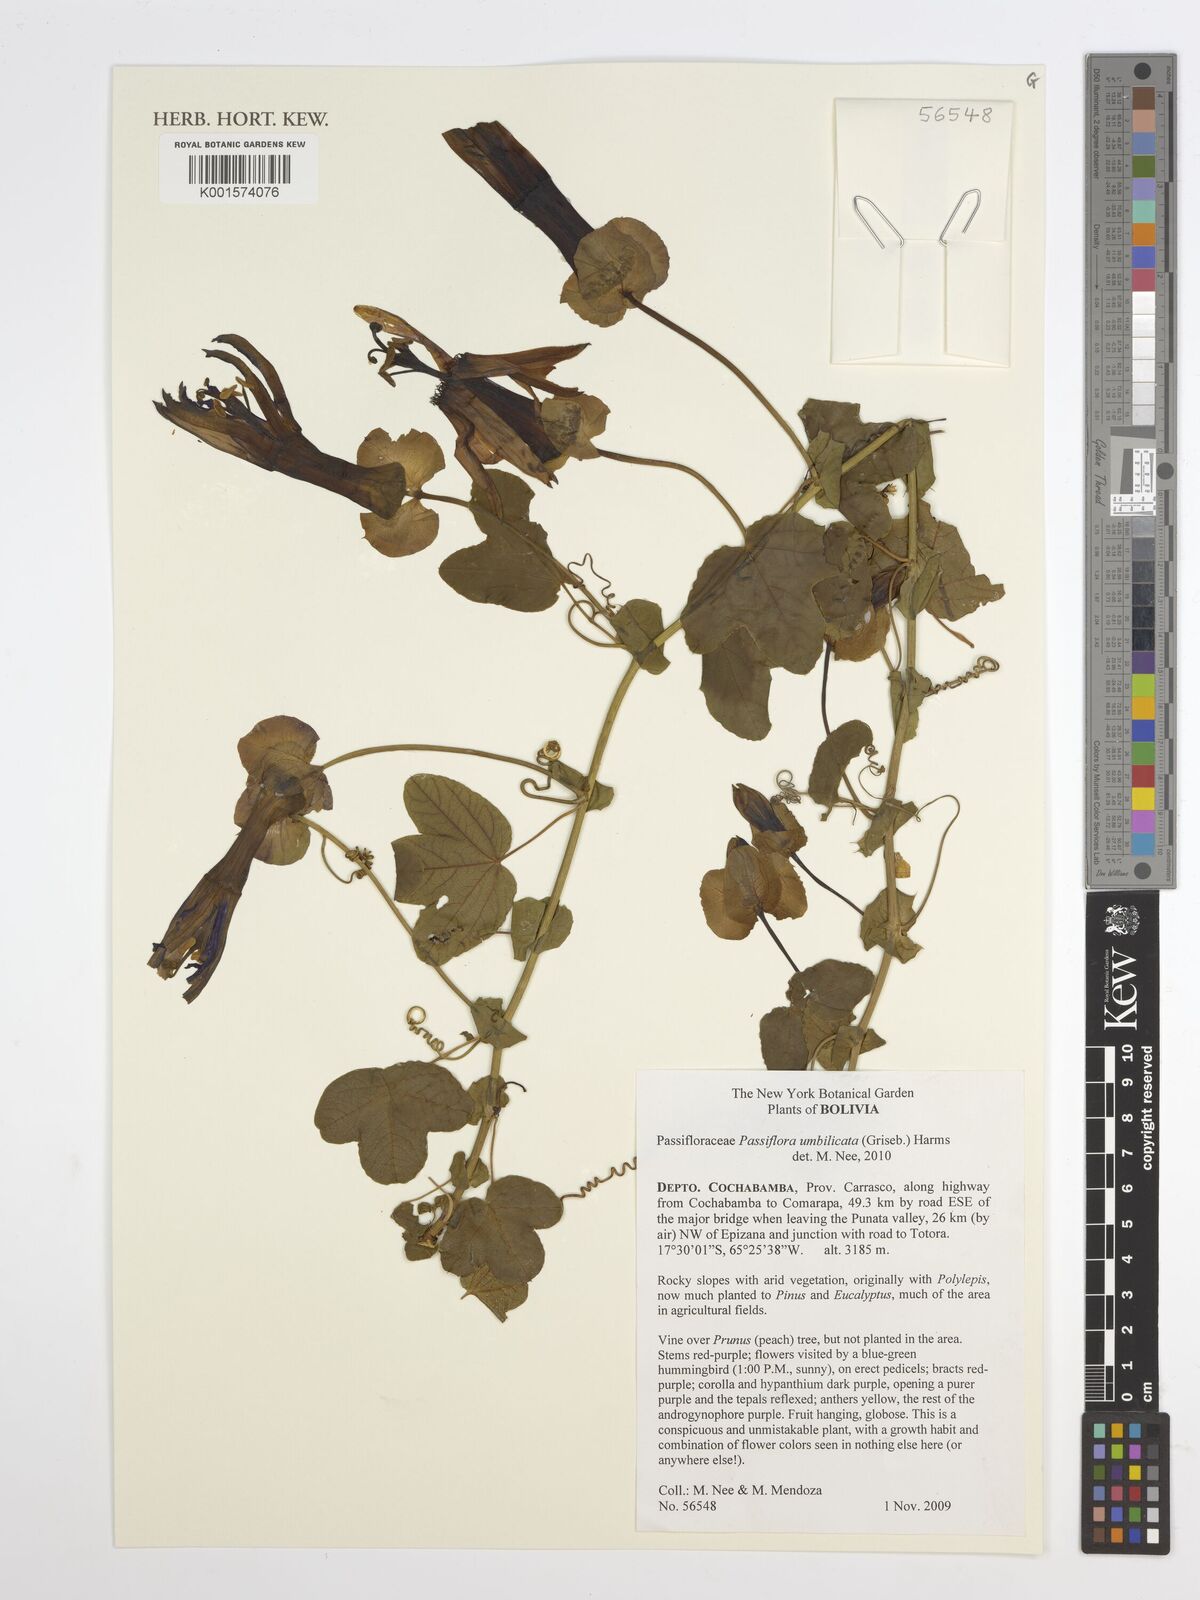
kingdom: Plantae
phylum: Tracheophyta
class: Magnoliopsida
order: Malpighiales
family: Passifloraceae
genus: Passiflora
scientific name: Passiflora umbilicata
